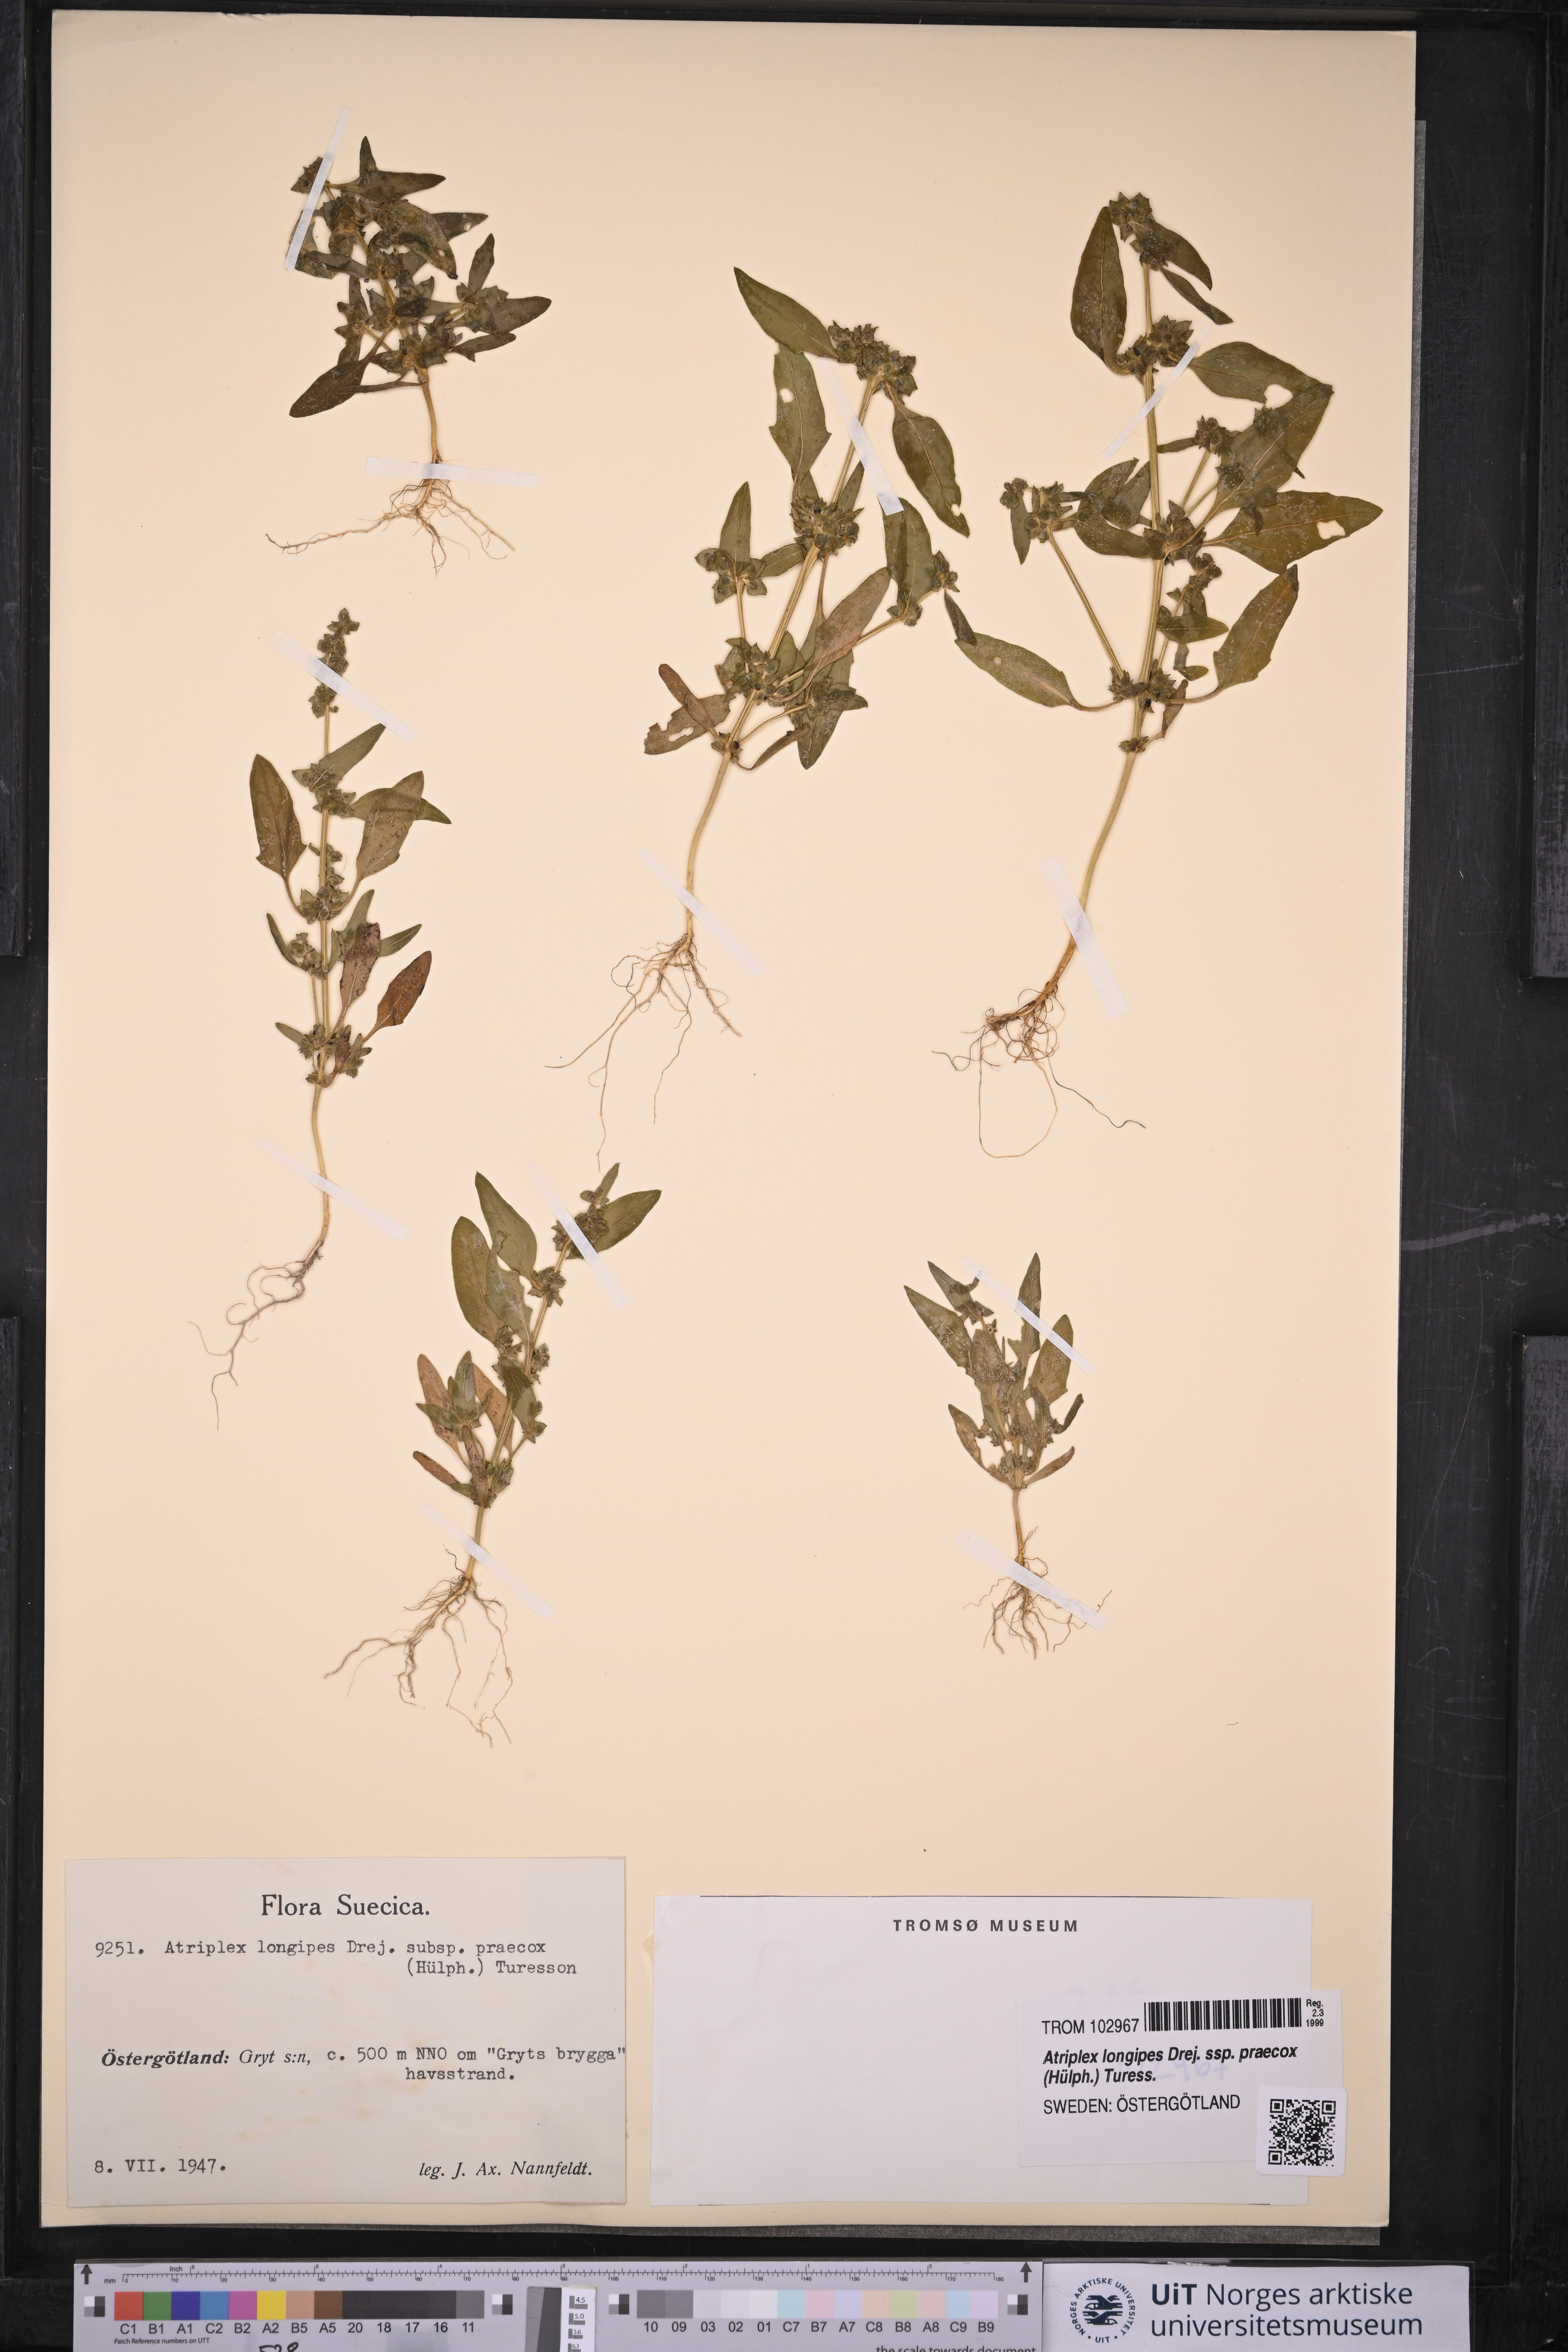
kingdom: Plantae
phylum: Tracheophyta
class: Magnoliopsida
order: Caryophyllales
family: Amaranthaceae
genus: Atriplex
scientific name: Atriplex praecox
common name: Early orache
